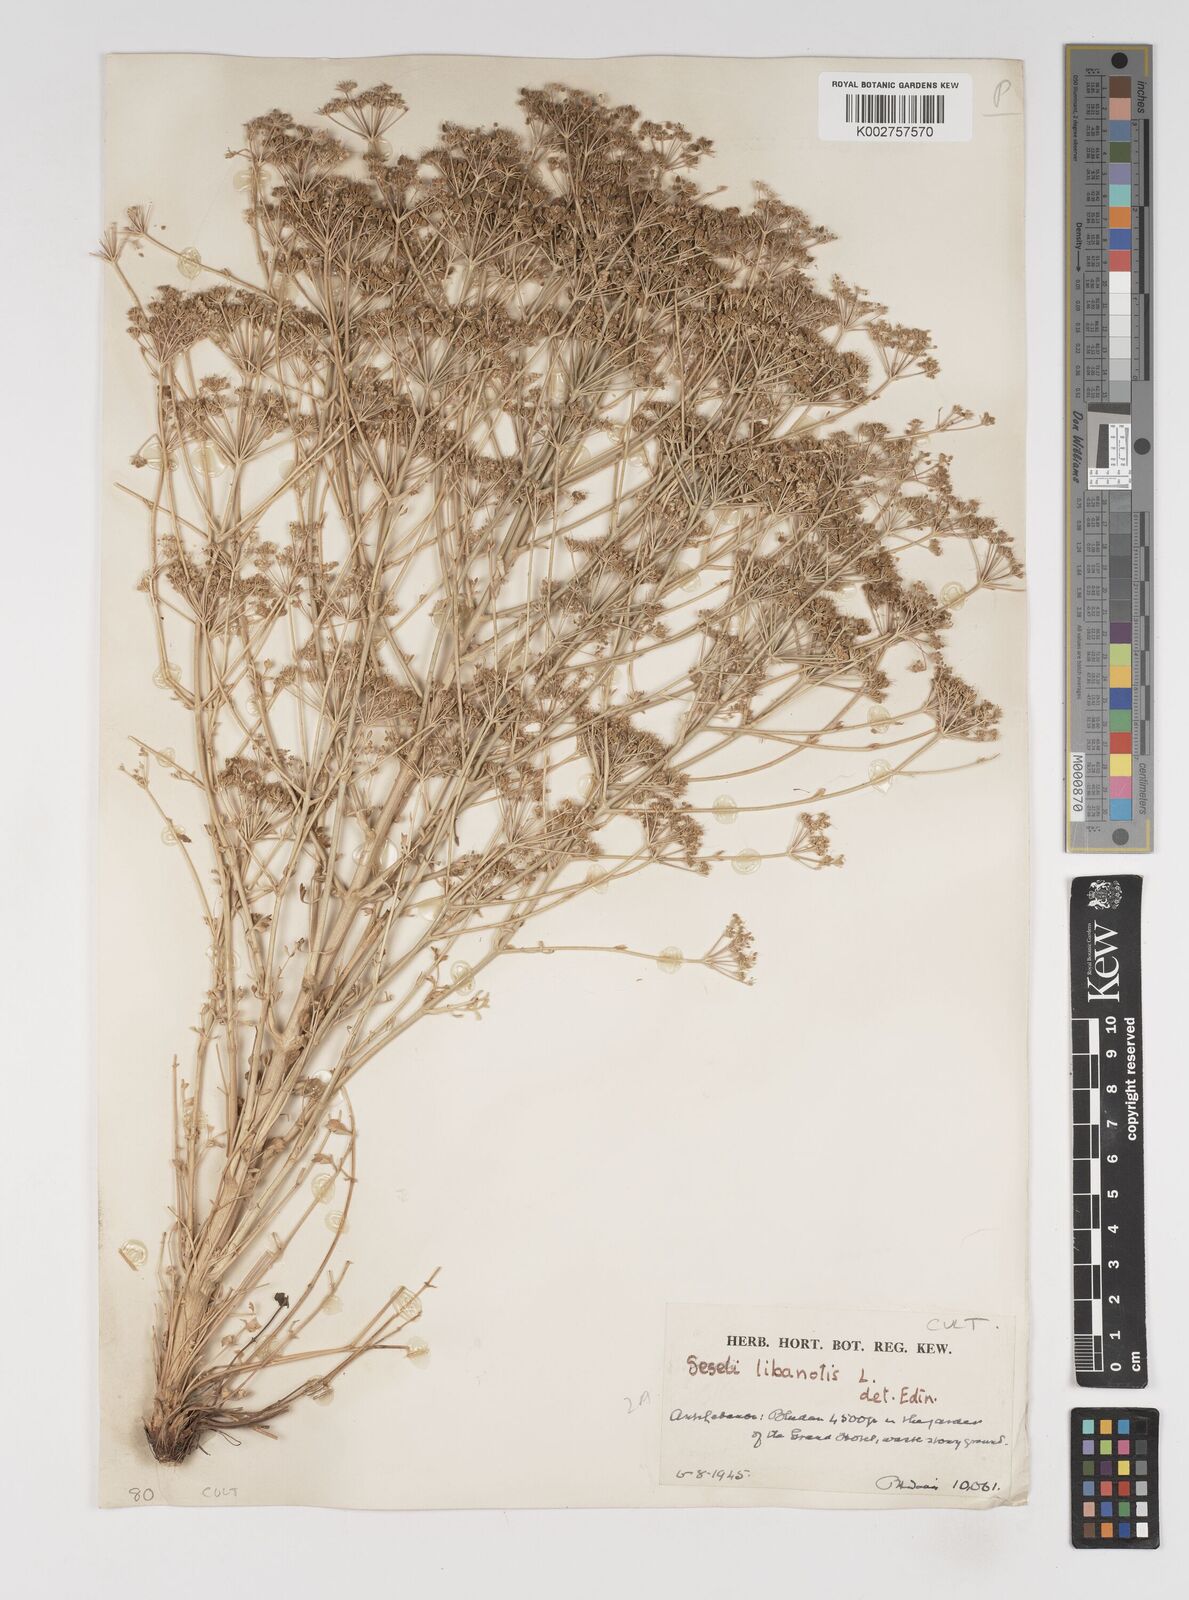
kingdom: Plantae
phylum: Tracheophyta
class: Magnoliopsida
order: Apiales
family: Apiaceae
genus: Seseli
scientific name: Seseli
